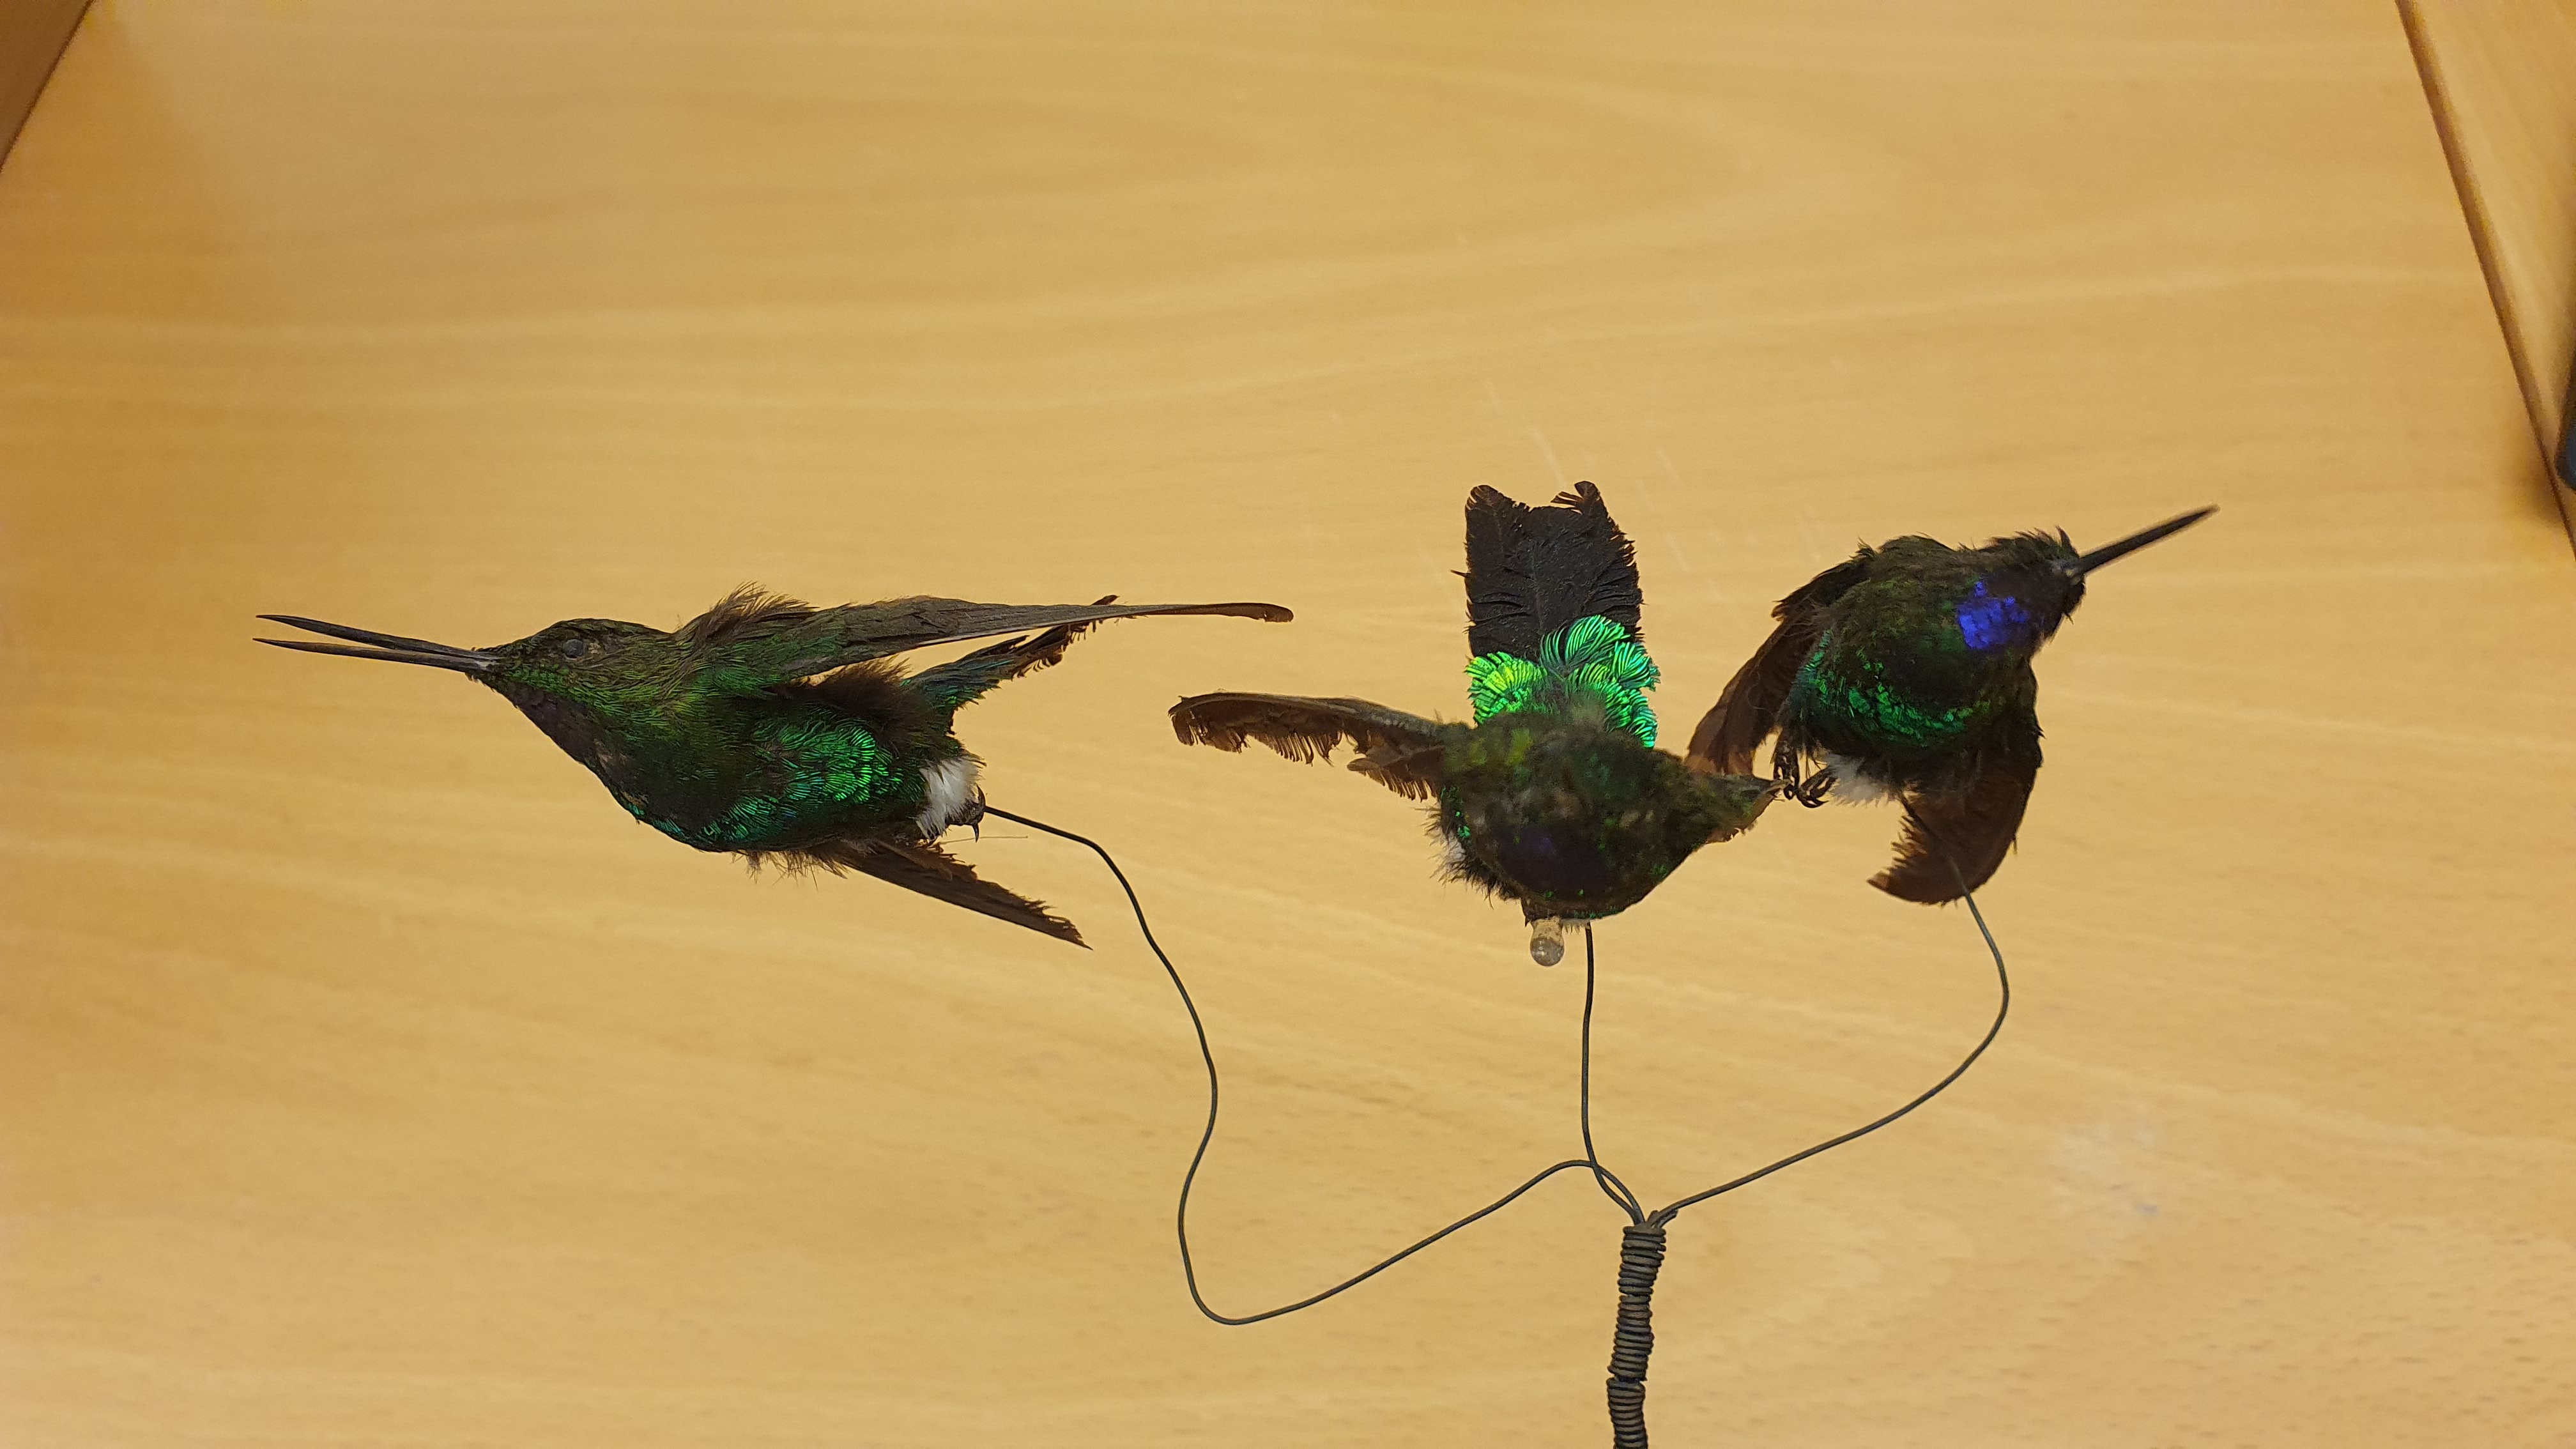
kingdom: Animalia
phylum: Chordata
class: Aves
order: Apodiformes
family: Trochilidae
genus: Eriocnemis
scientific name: Eriocnemis vestita
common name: Glowing puffleg
